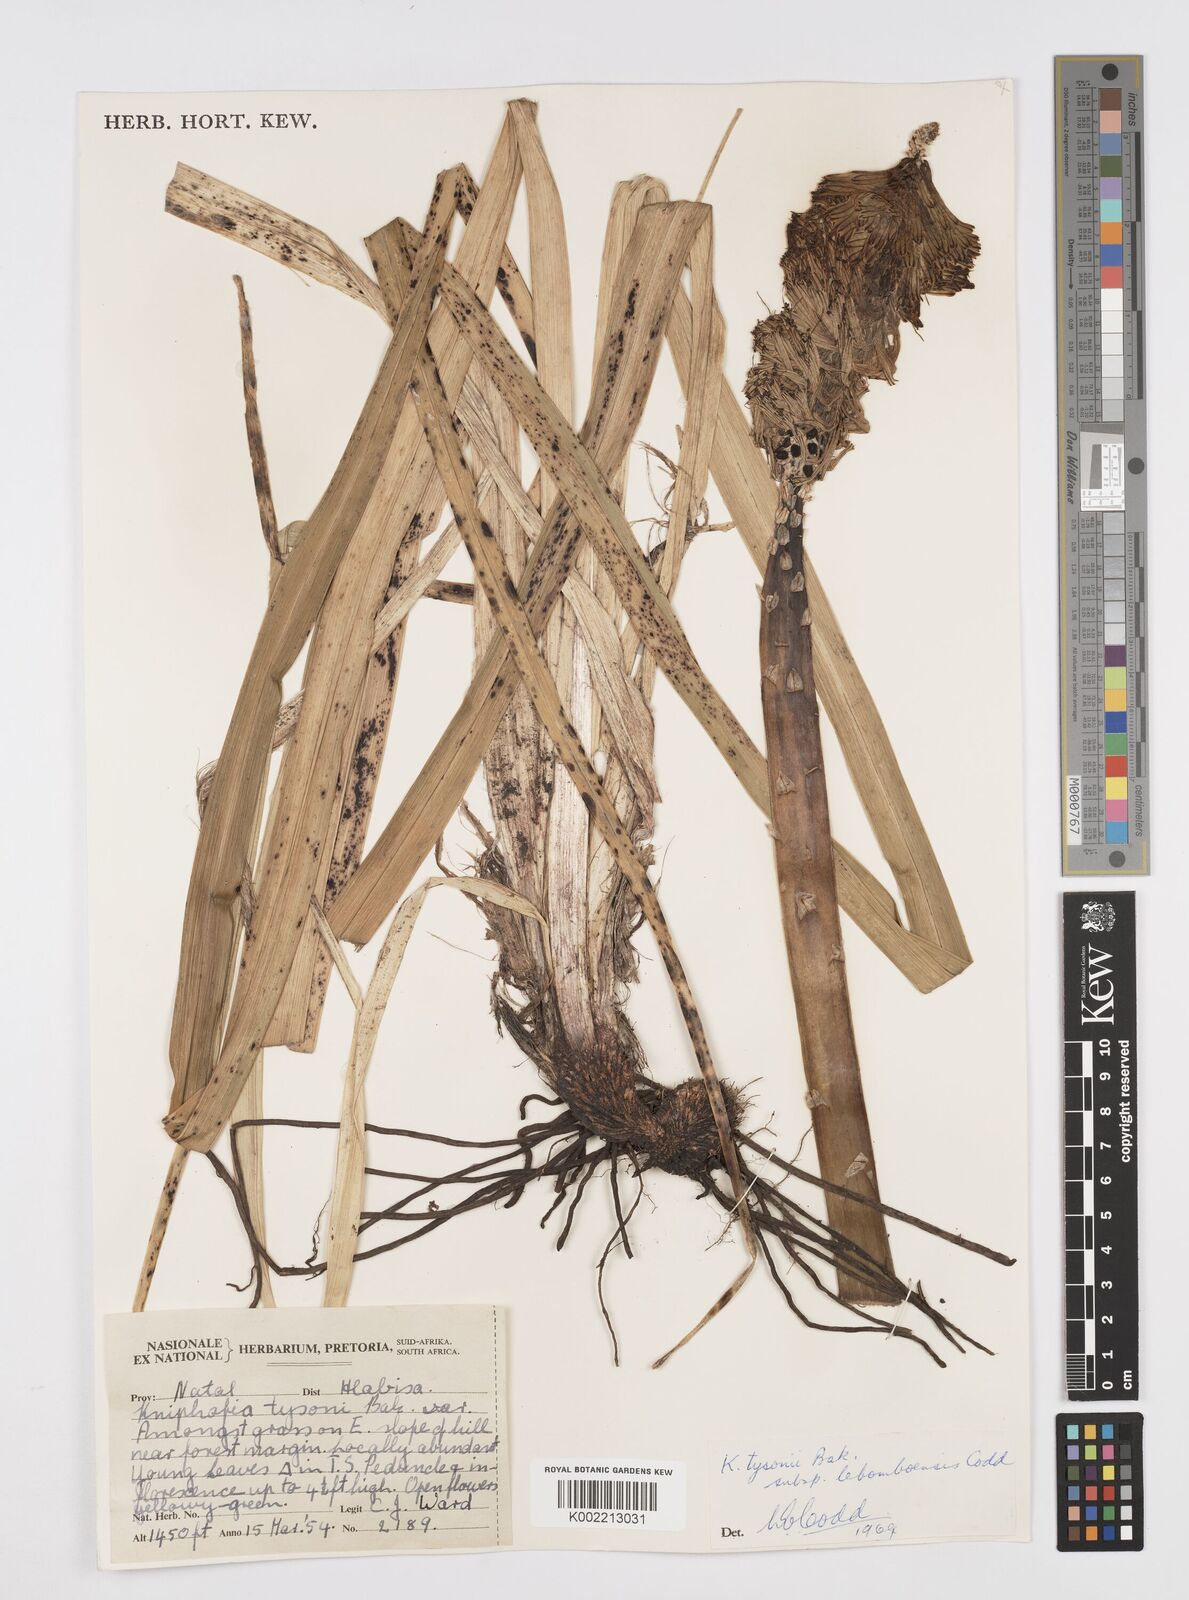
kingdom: Plantae
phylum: Tracheophyta
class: Liliopsida
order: Asparagales
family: Asphodelaceae
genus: Kniphofia
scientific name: Kniphofia tysonii
